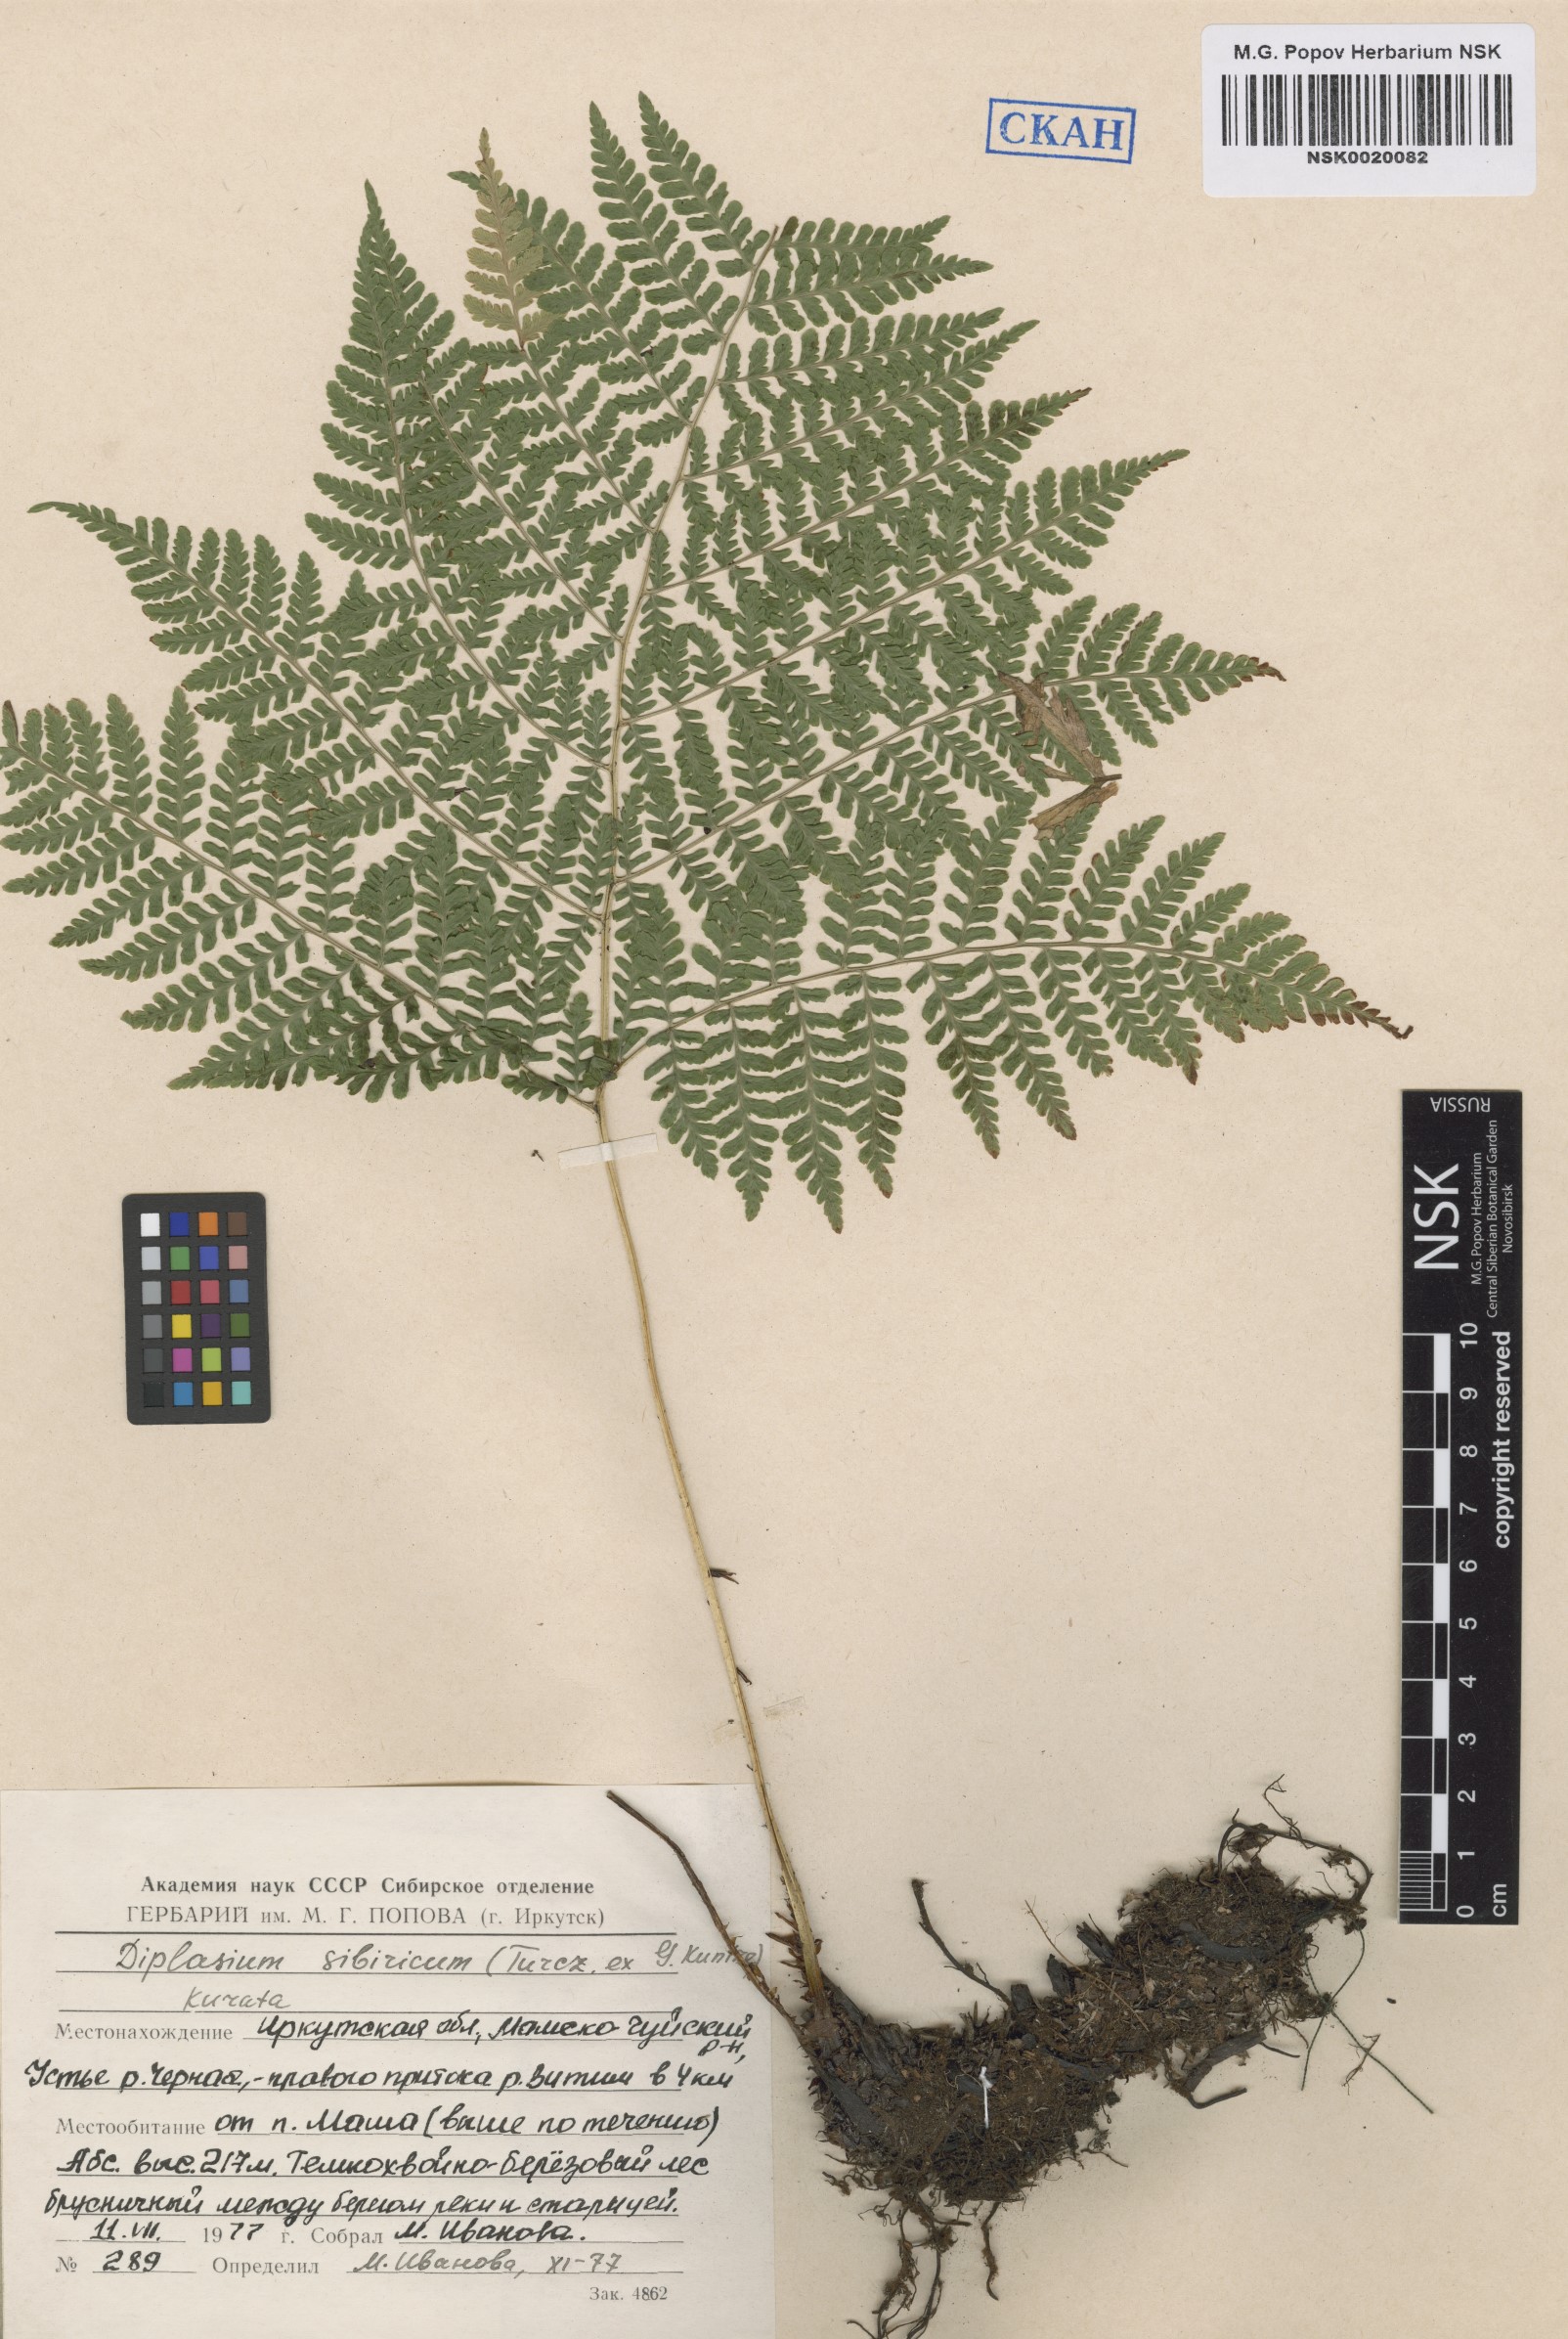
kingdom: Plantae
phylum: Tracheophyta
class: Polypodiopsida
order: Polypodiales
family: Athyriaceae
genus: Diplazium
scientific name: Diplazium sibiricum
